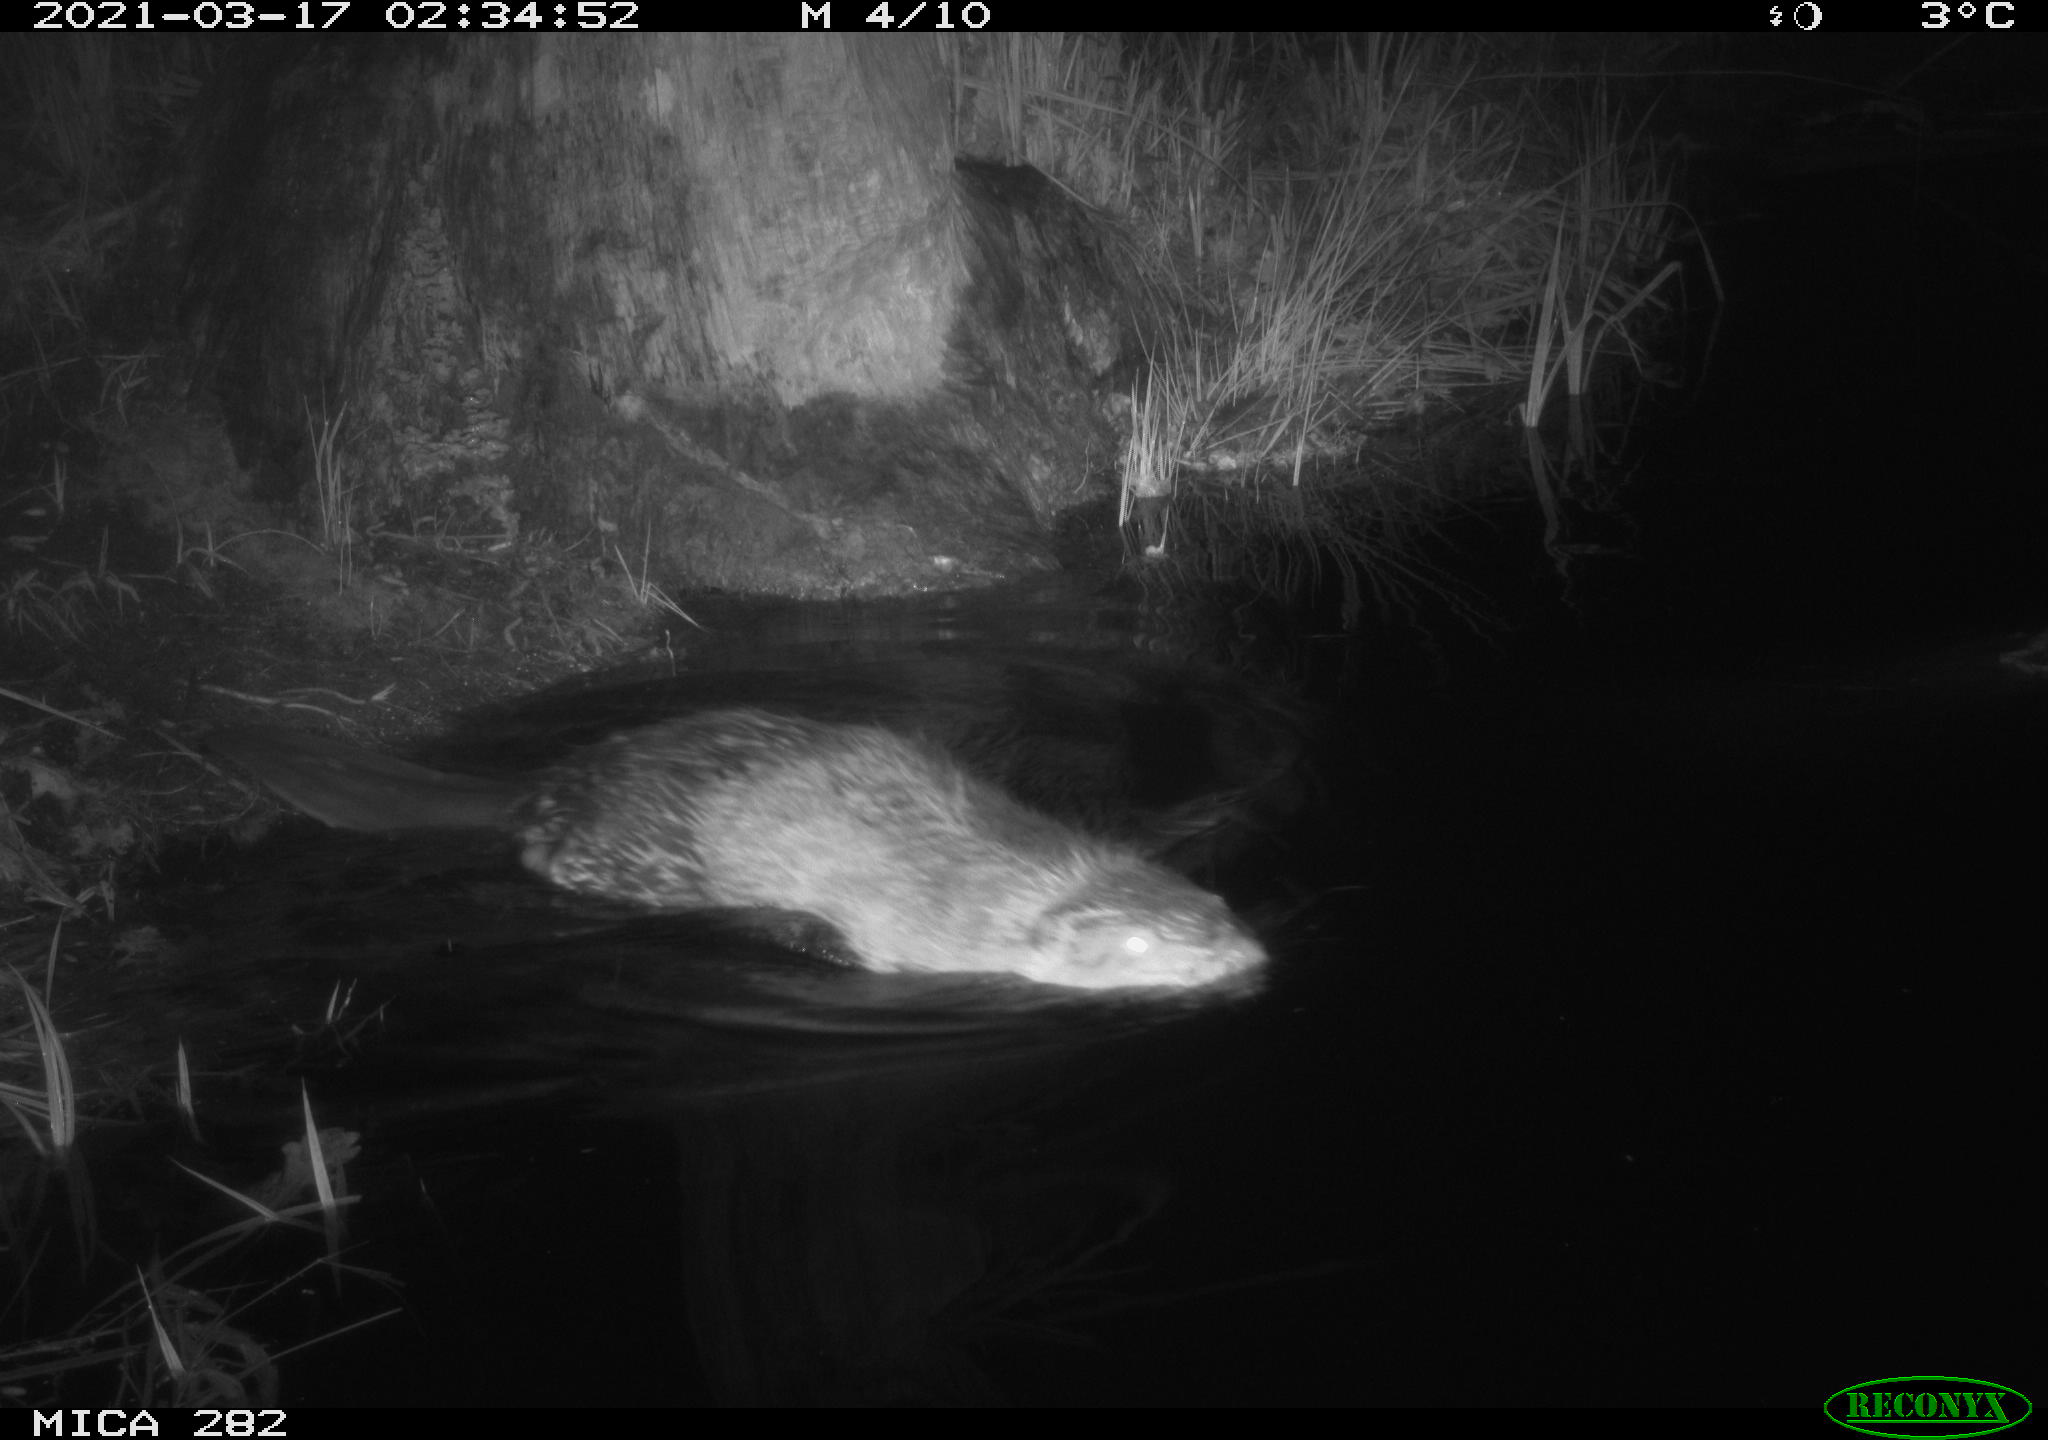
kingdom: Animalia
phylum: Chordata
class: Mammalia
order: Rodentia
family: Castoridae
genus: Castor
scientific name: Castor fiber
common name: Eurasian beaver
